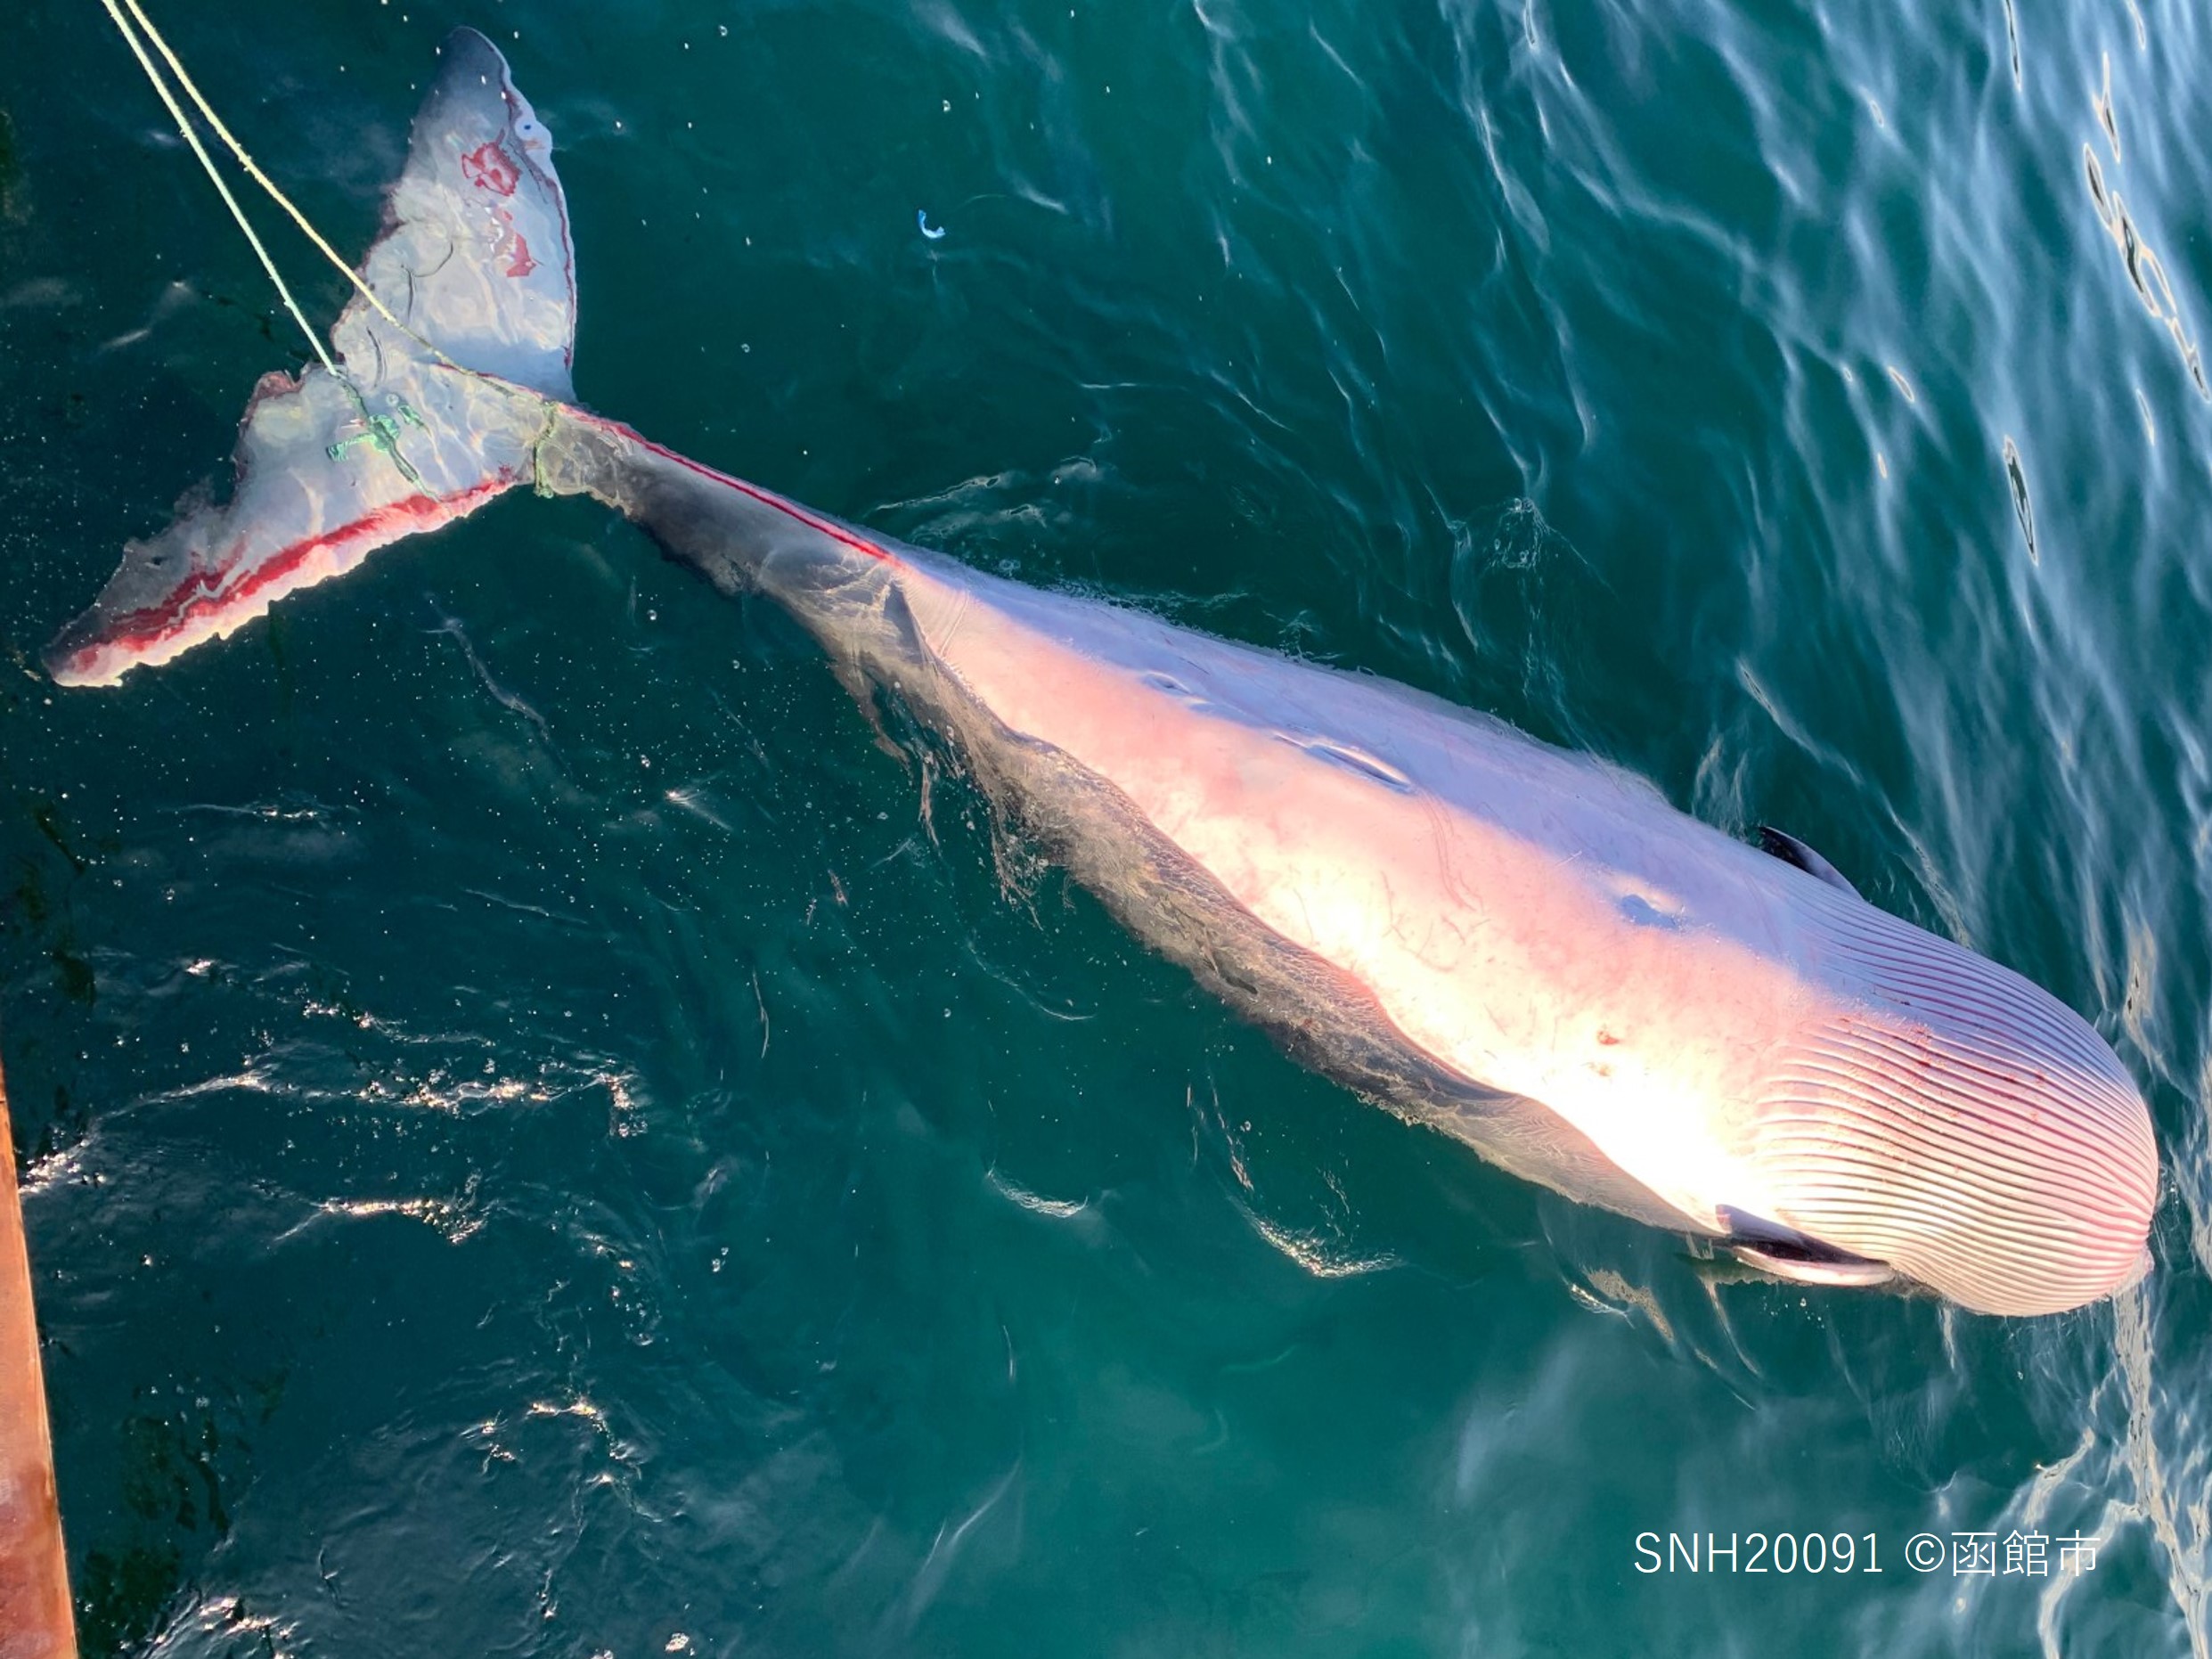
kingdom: Animalia
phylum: Chordata
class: Mammalia
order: Cetacea
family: Balaenopteridae
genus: Balaenoptera
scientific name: Balaenoptera acutorostrata
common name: Minke whale
